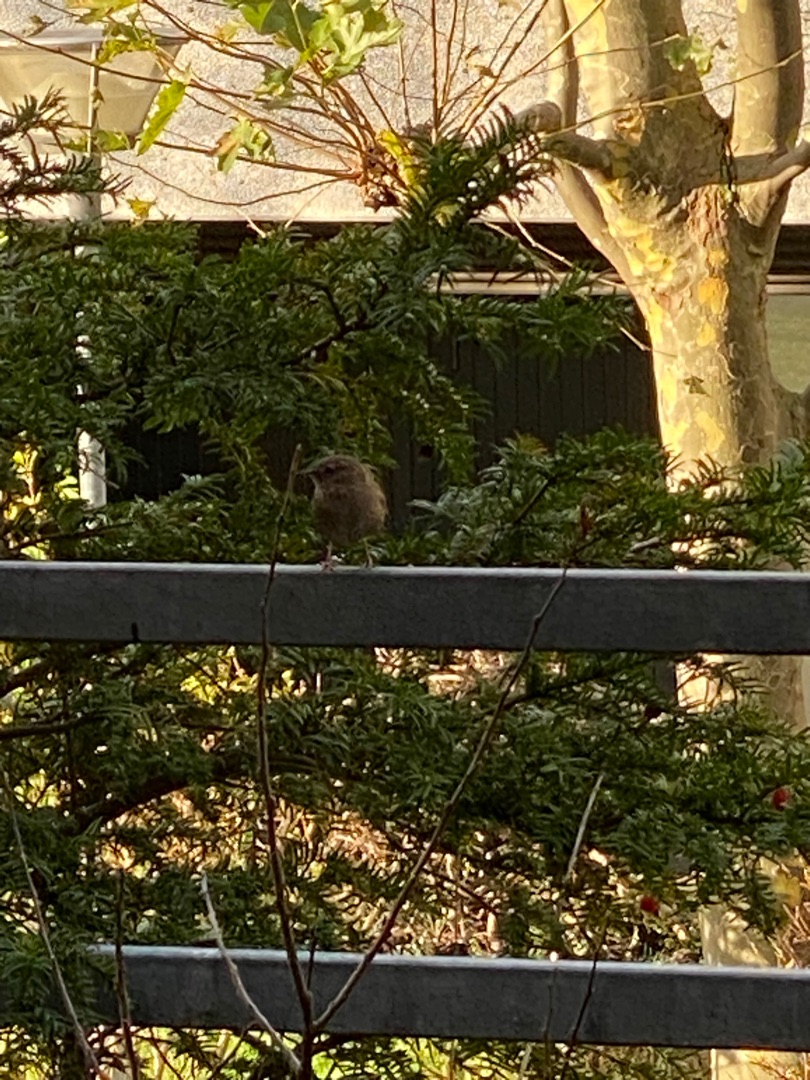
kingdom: Animalia
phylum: Chordata
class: Aves
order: Passeriformes
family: Troglodytidae
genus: Troglodytes
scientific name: Troglodytes troglodytes
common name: Gærdesmutte
